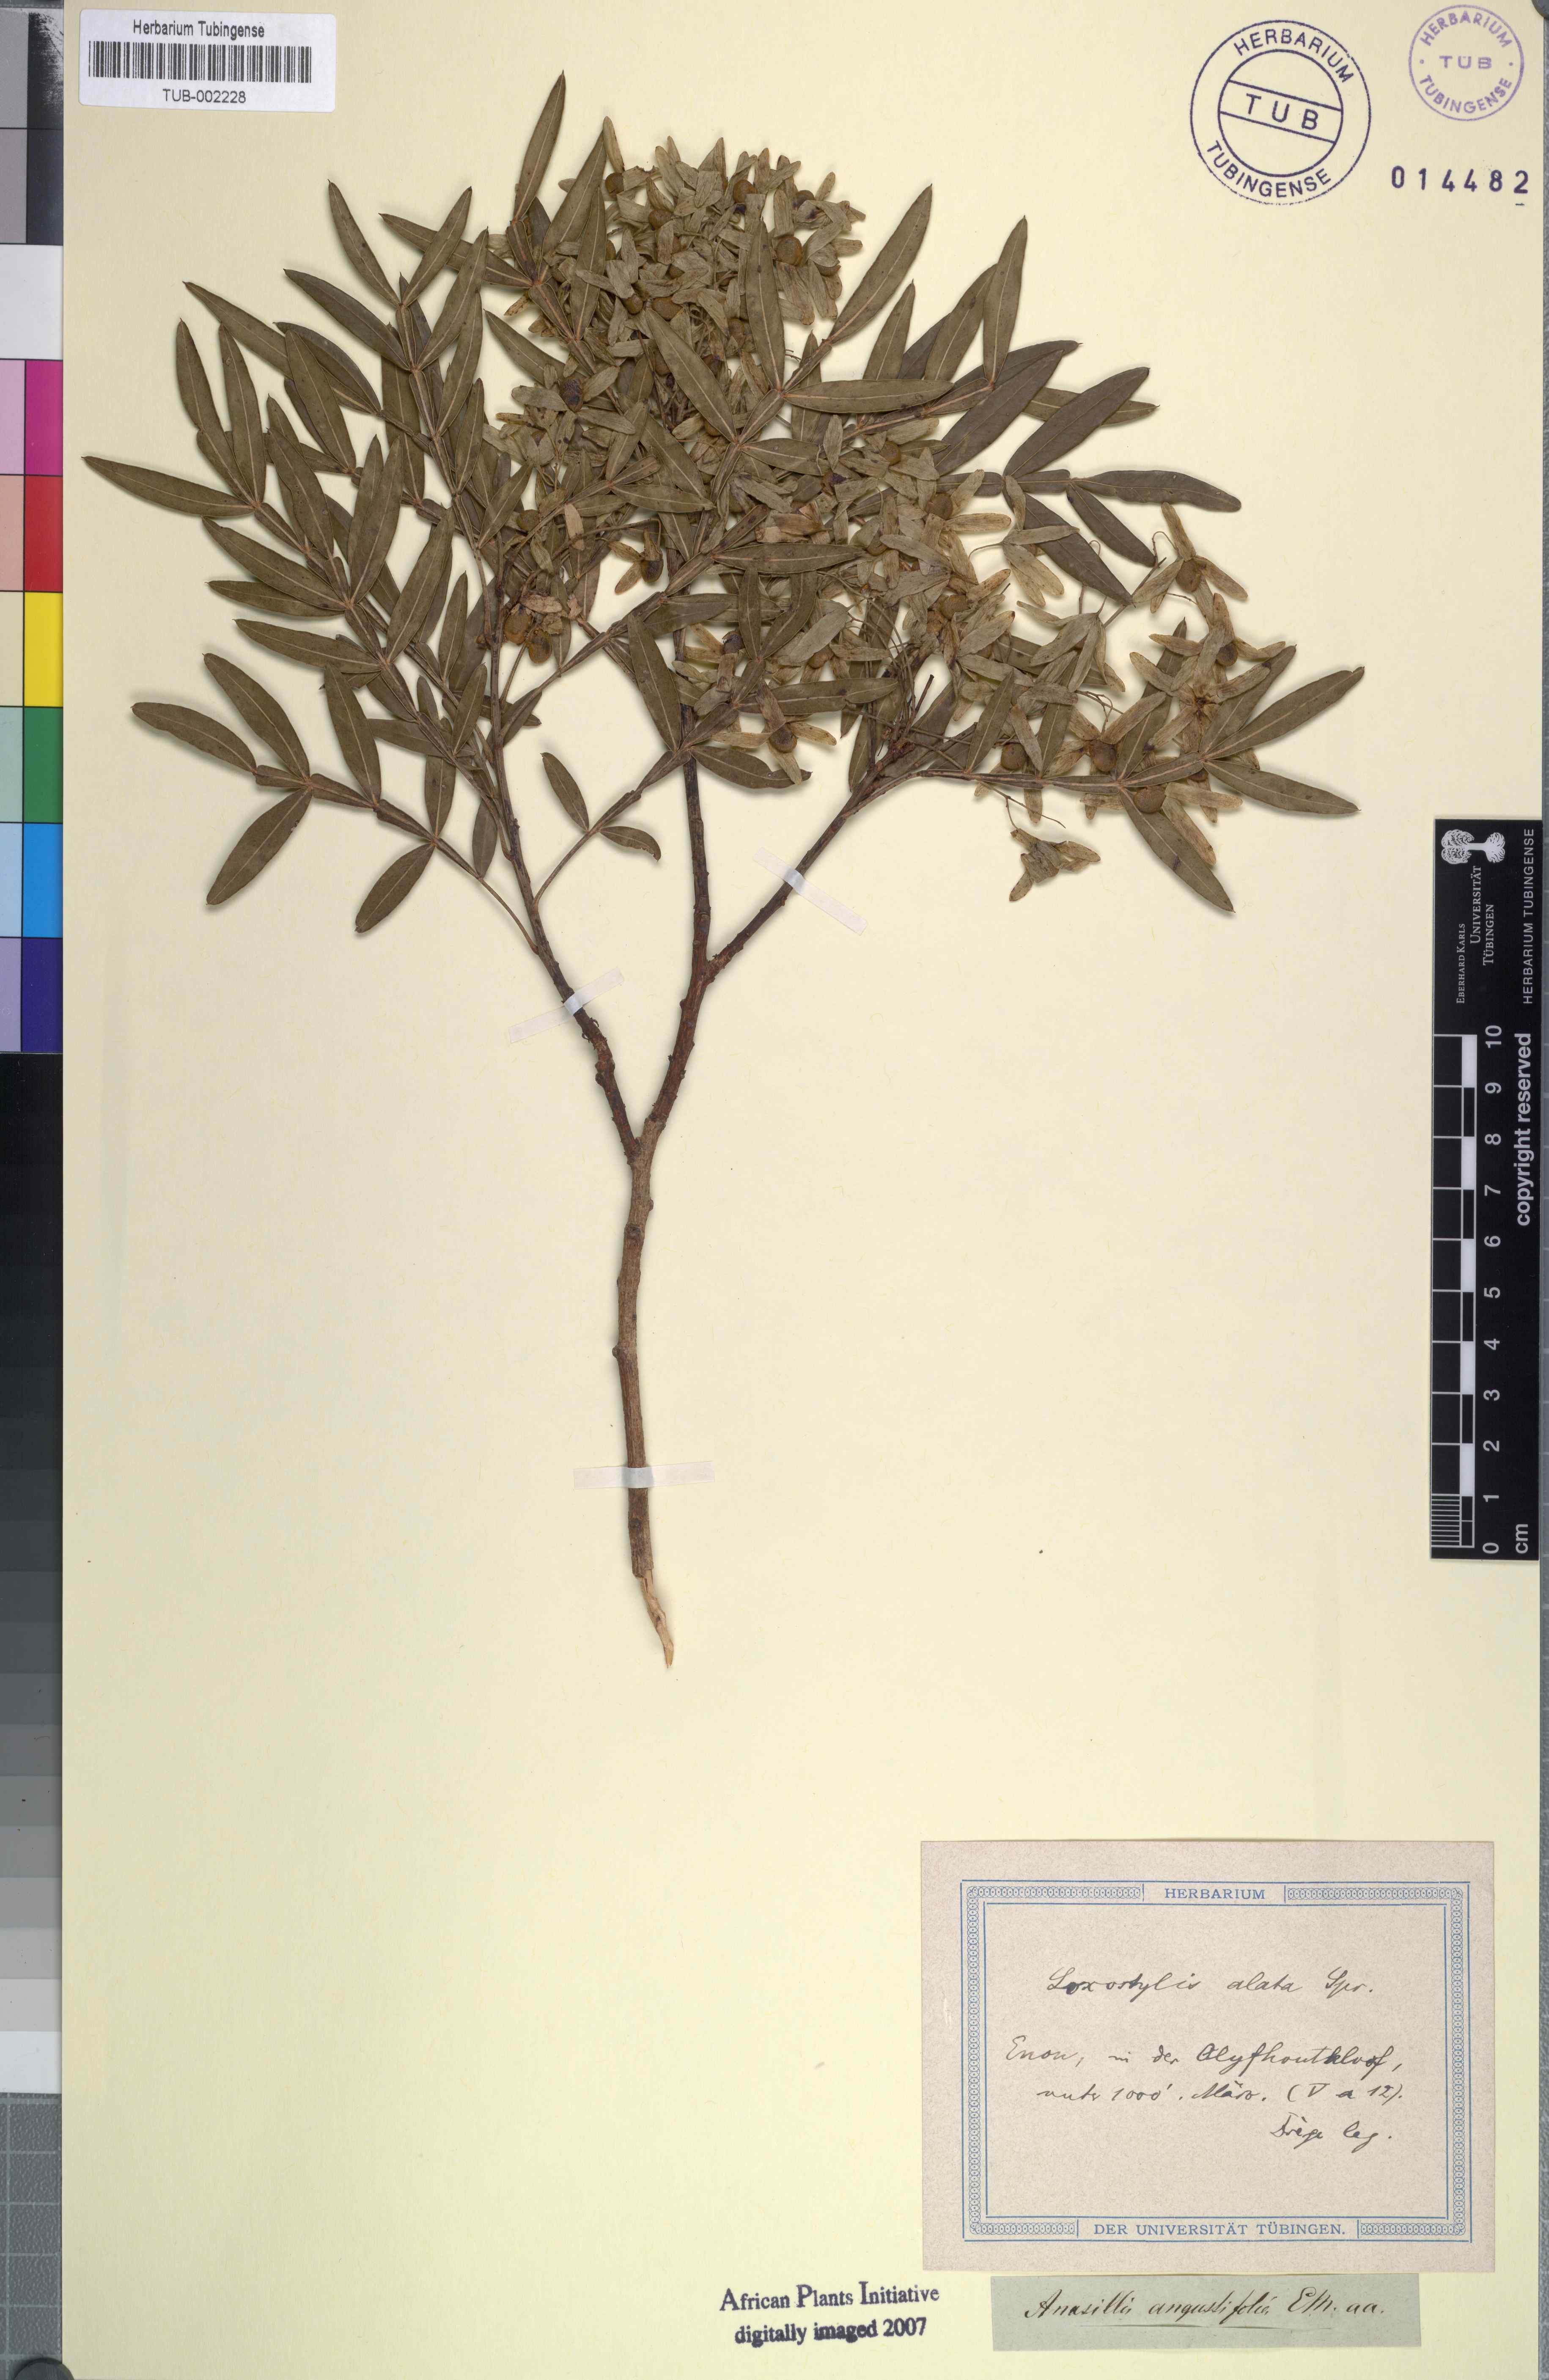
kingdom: Plantae
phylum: Tracheophyta
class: Magnoliopsida
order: Sapindales
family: Anacardiaceae
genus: Loxostylis
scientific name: Loxostylis alata
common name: Wild peppertree
